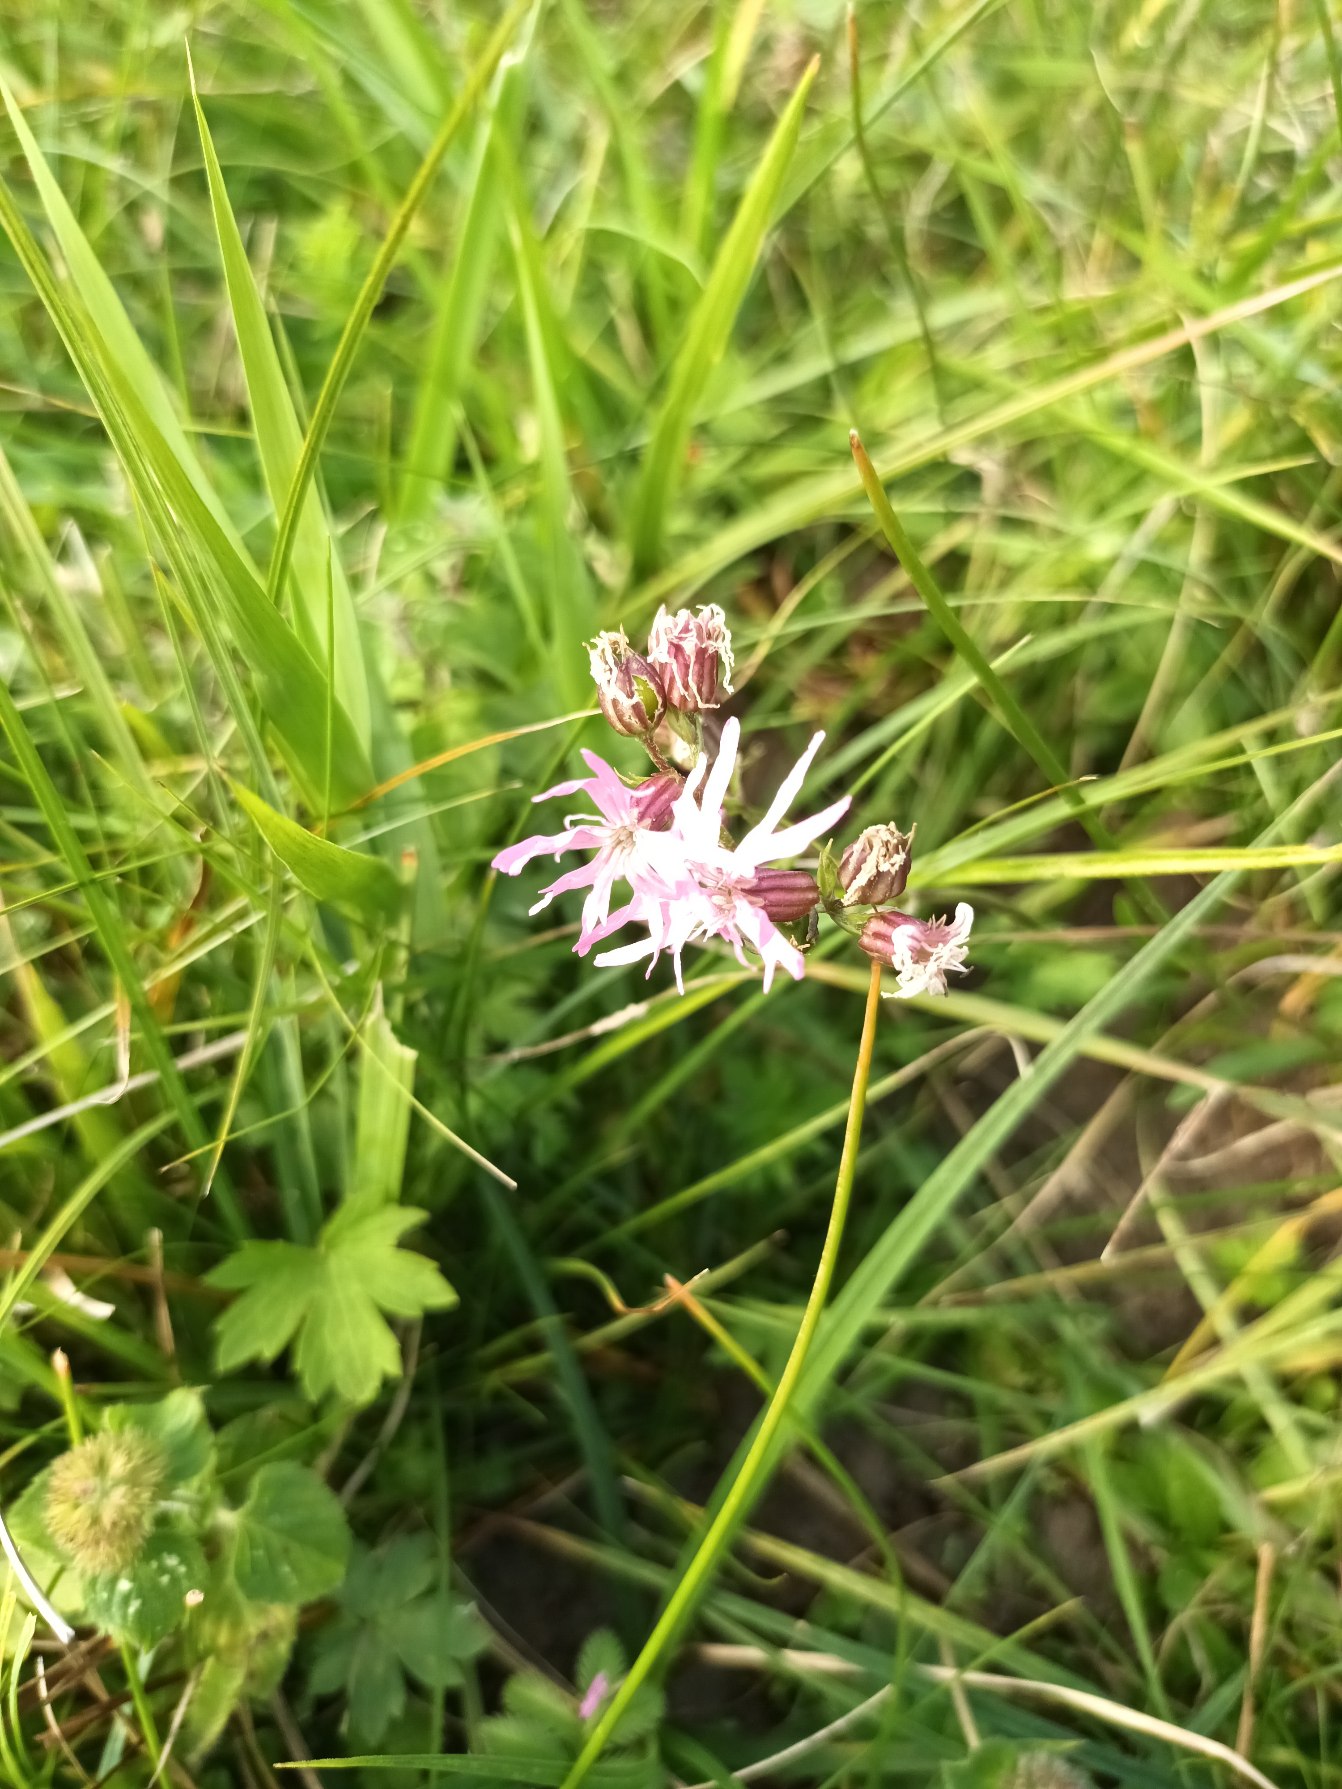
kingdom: Plantae
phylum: Tracheophyta
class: Magnoliopsida
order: Caryophyllales
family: Caryophyllaceae
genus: Silene
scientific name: Silene flos-cuculi
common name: Trævlekrone
